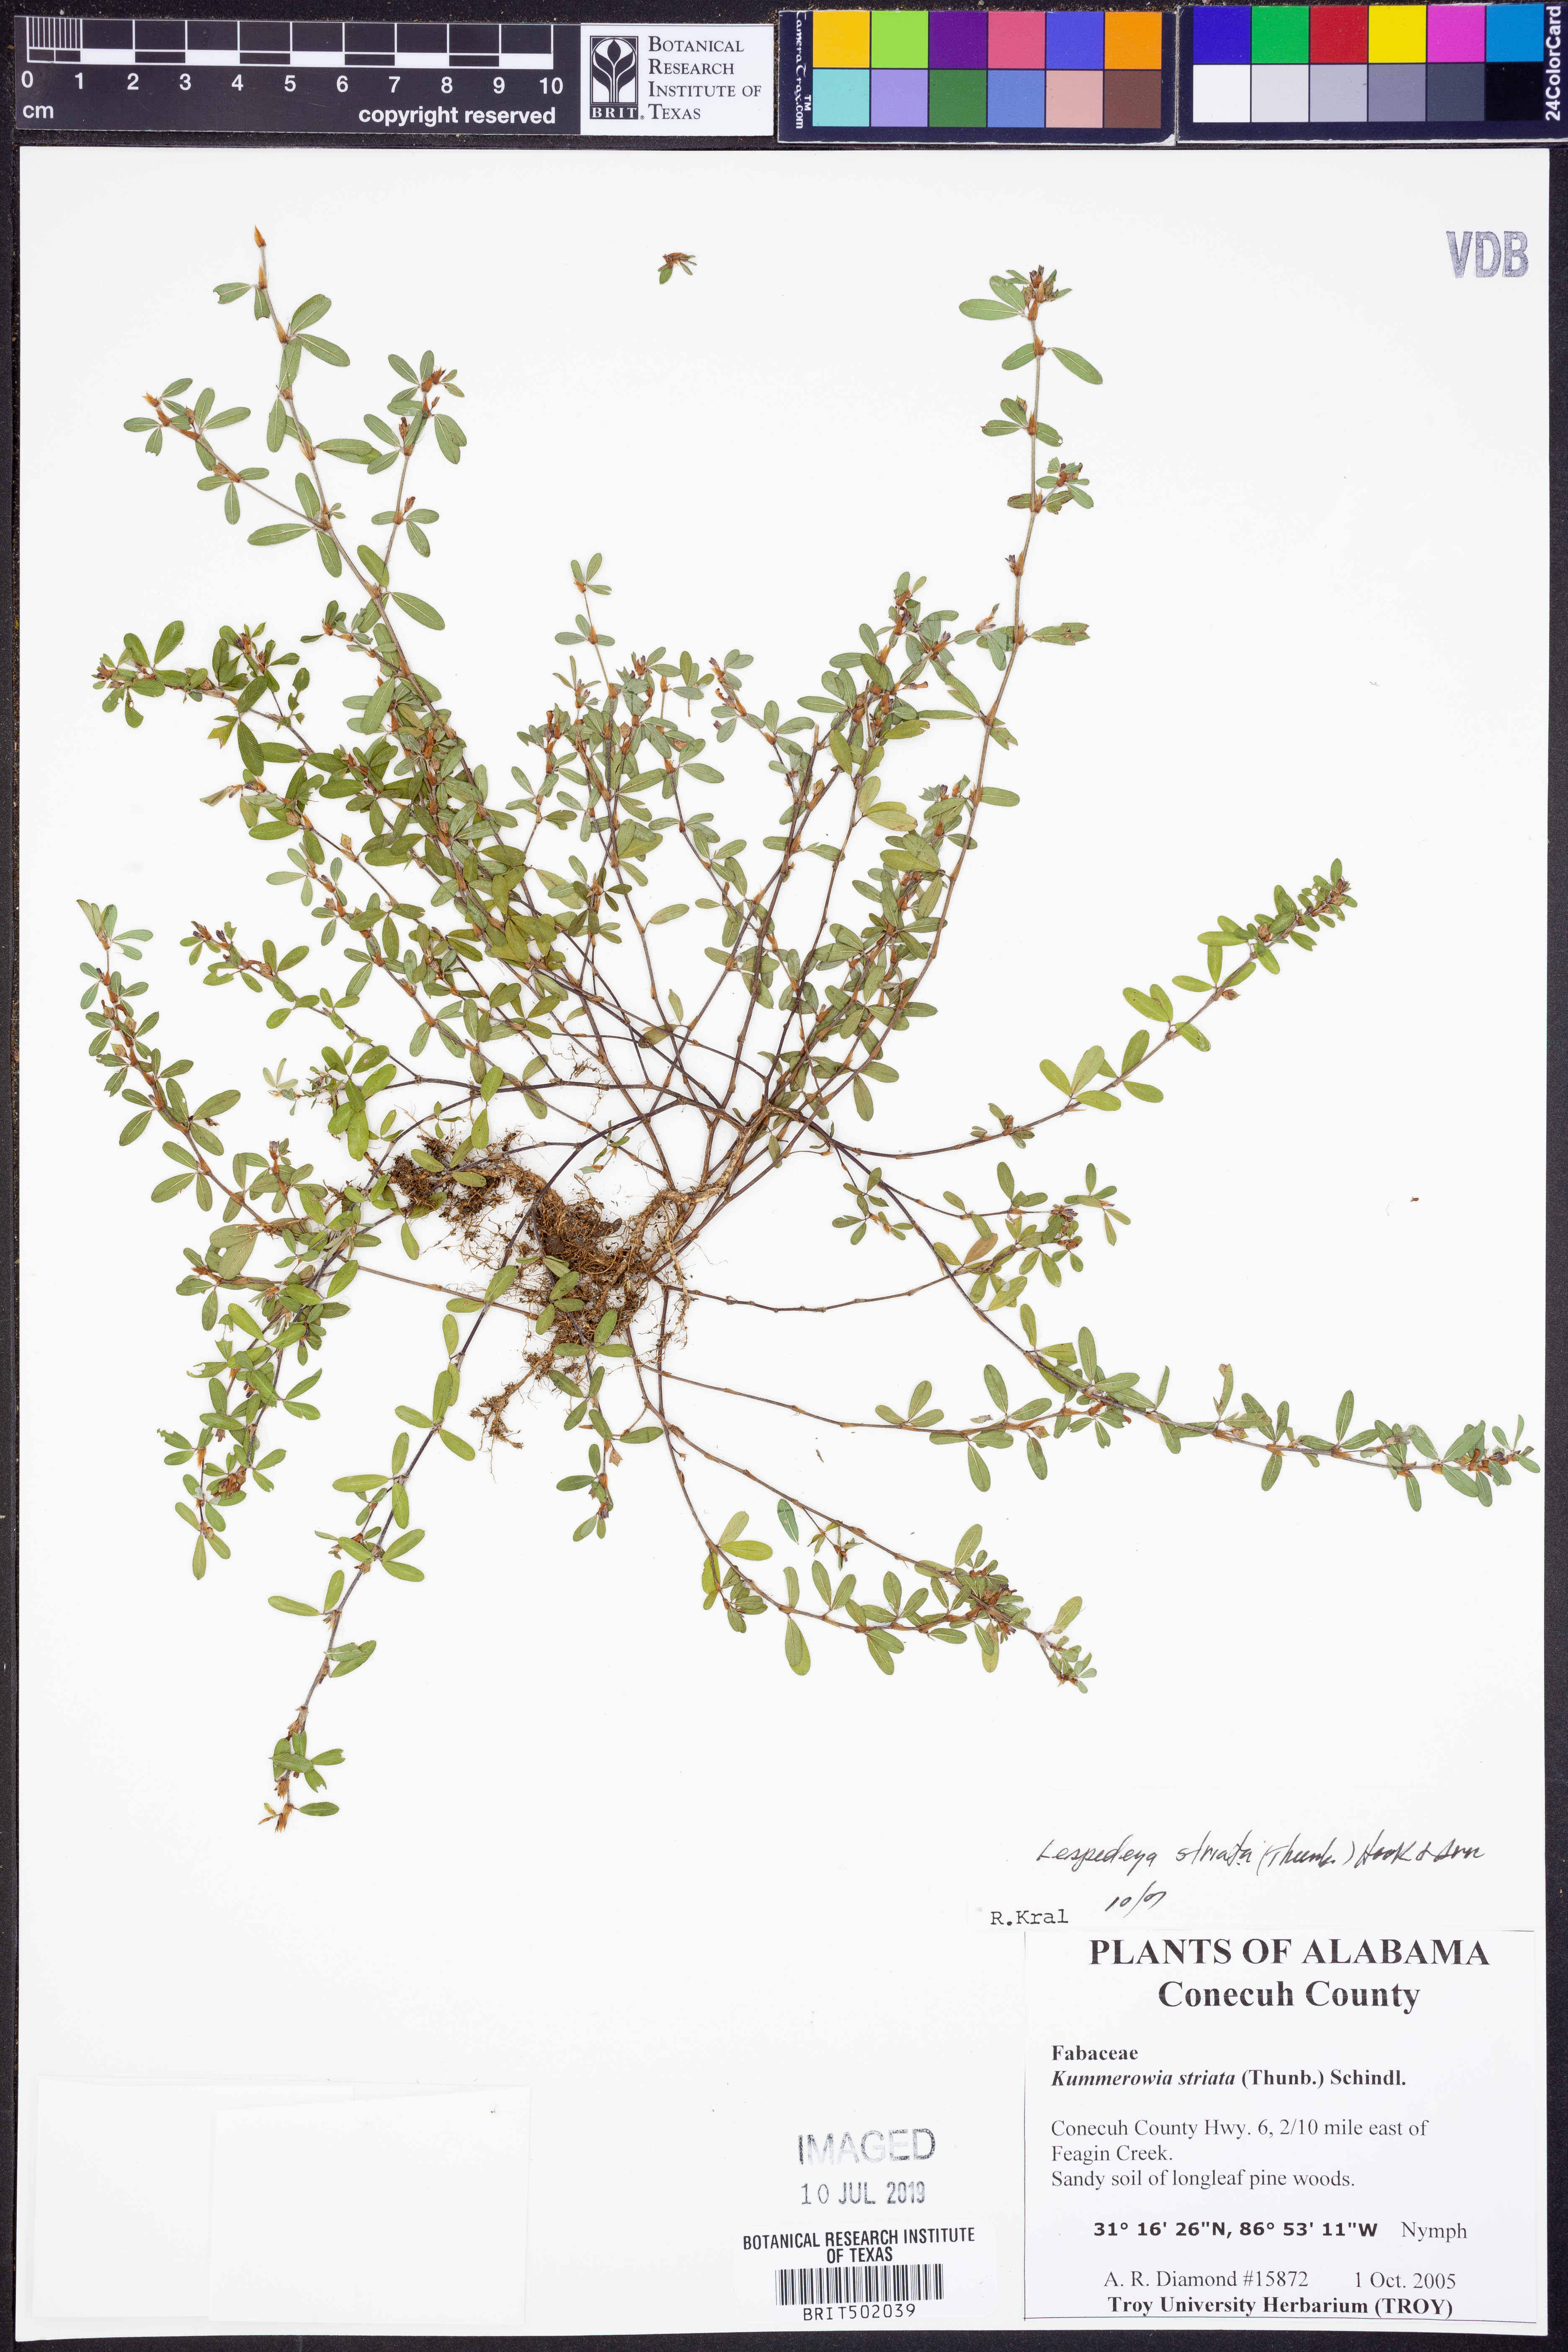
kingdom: Plantae
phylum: Tracheophyta
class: Magnoliopsida
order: Fabales
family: Fabaceae
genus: Kummerowia
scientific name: Kummerowia striata
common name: Japanese clover
